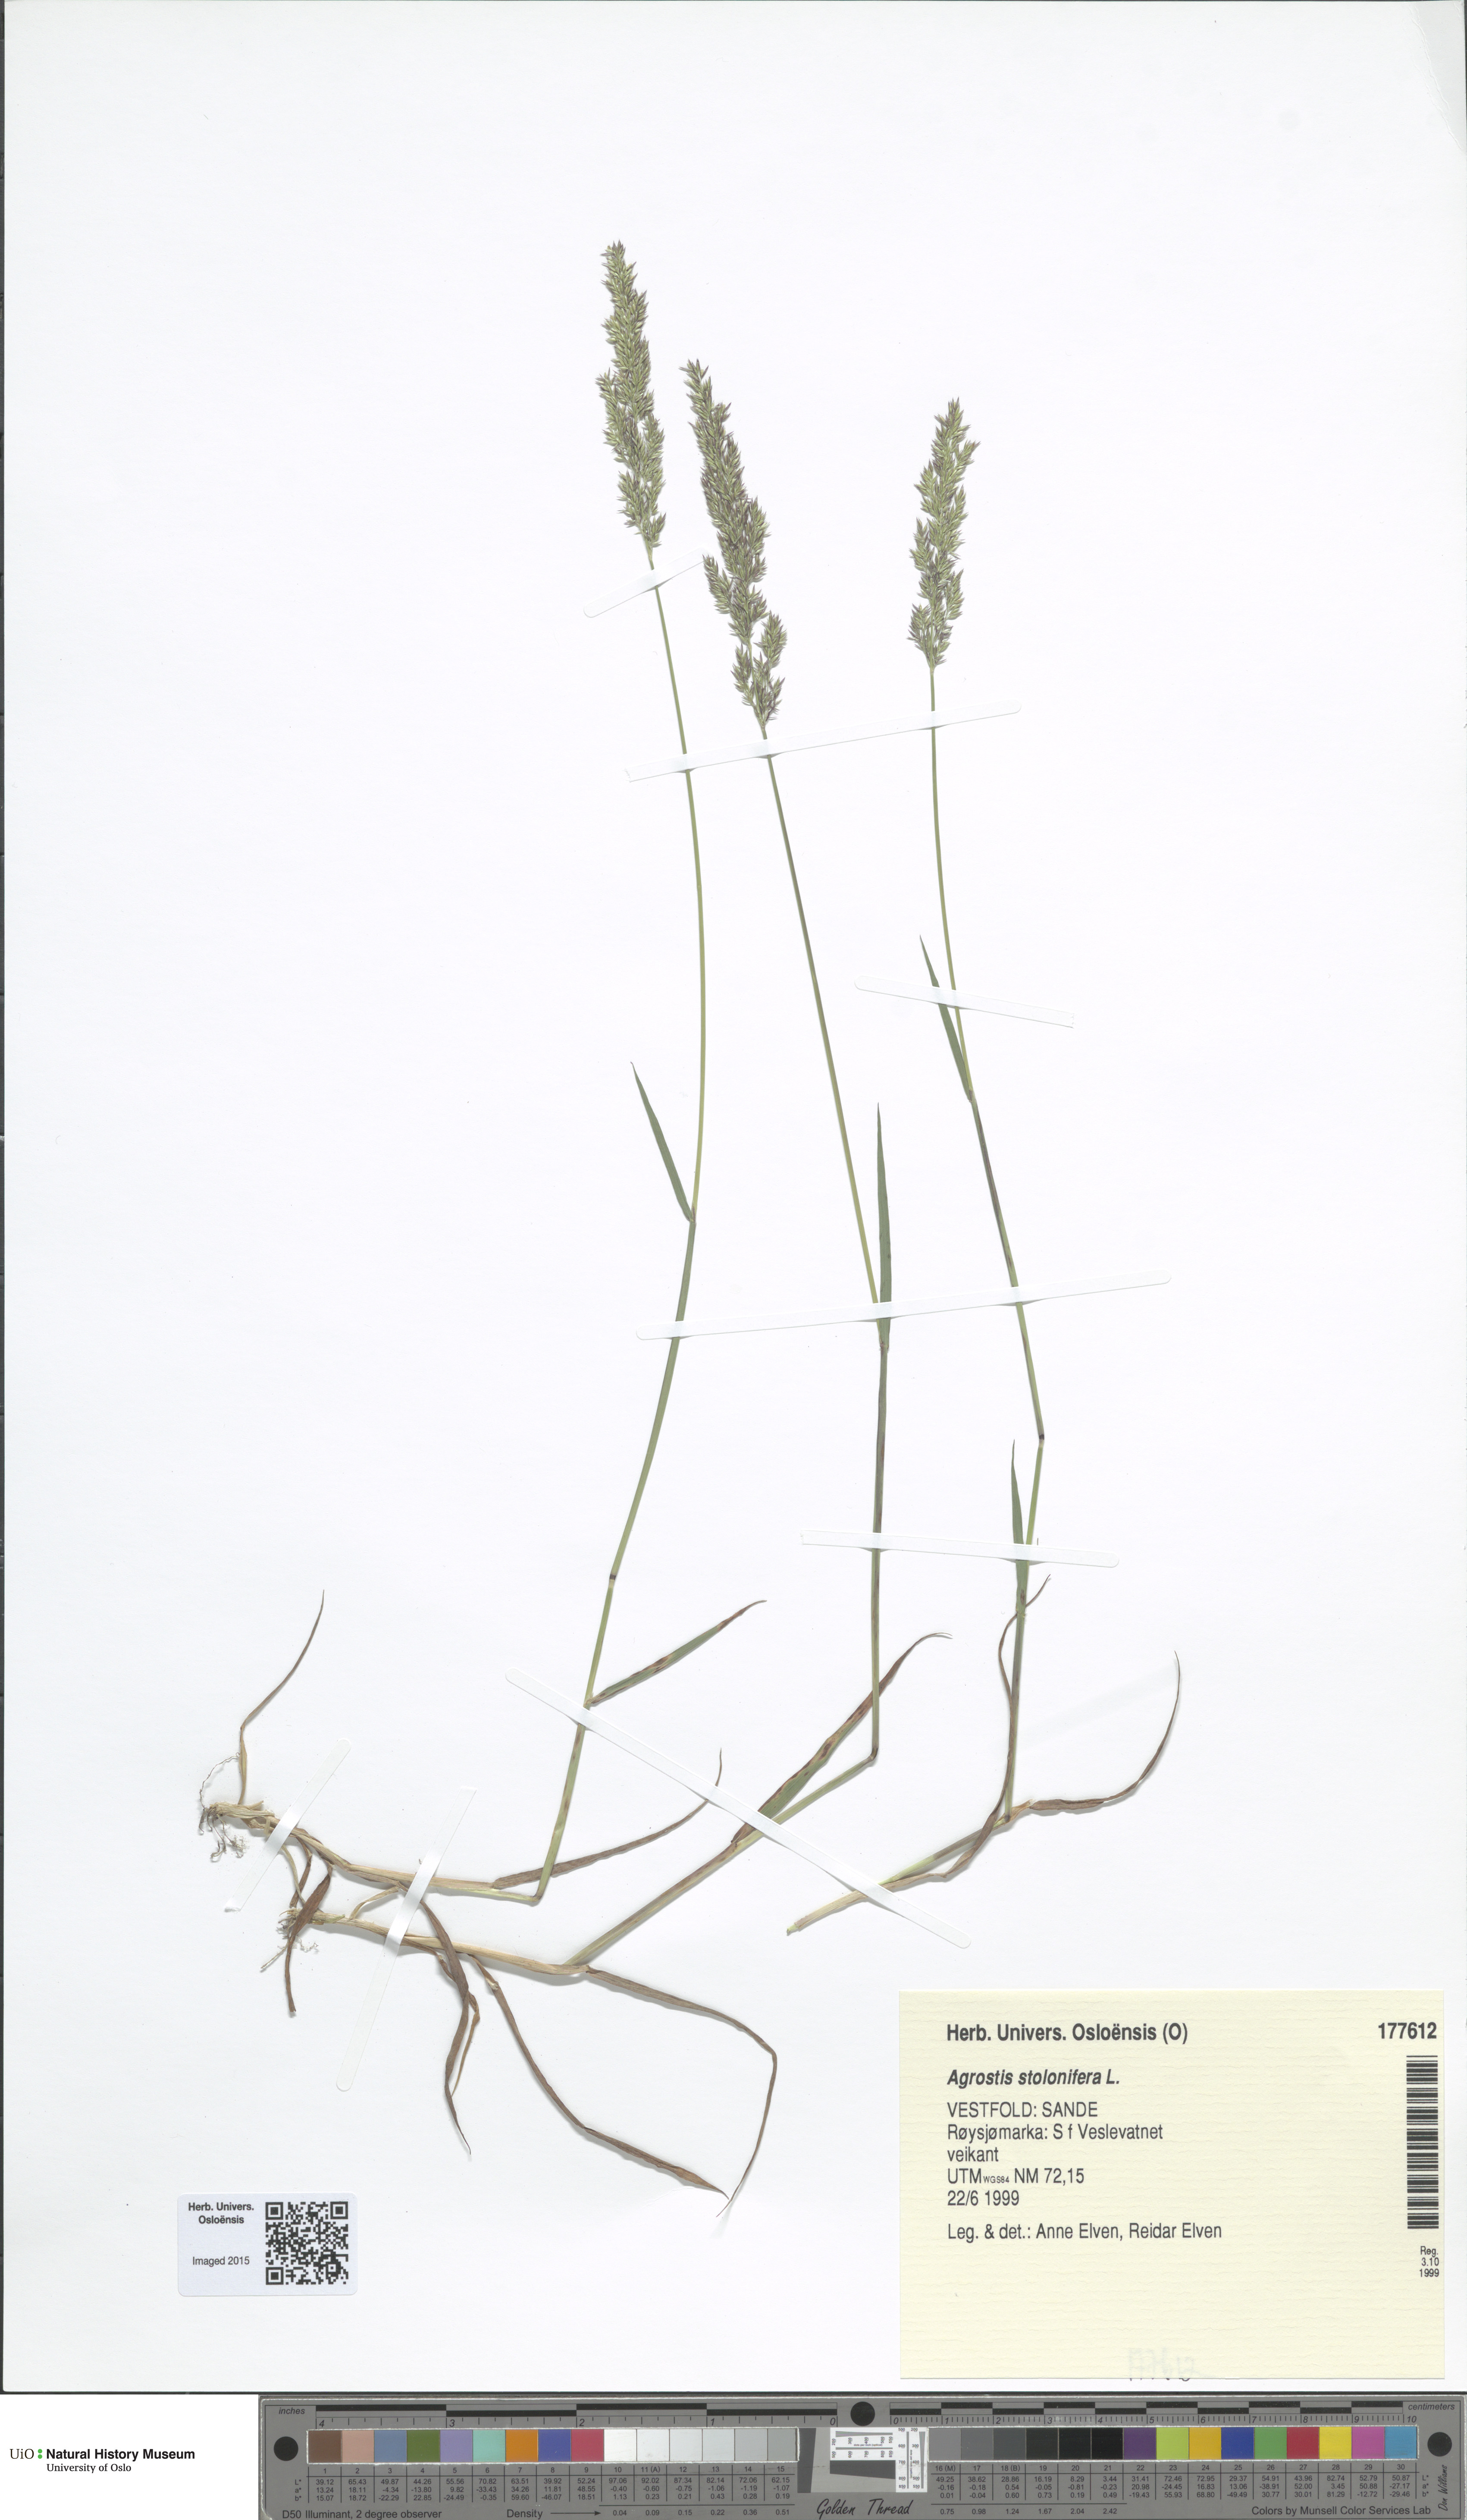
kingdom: Plantae
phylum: Tracheophyta
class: Liliopsida
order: Poales
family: Poaceae
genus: Agrostis
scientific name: Agrostis stolonifera
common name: Creeping bentgrass
